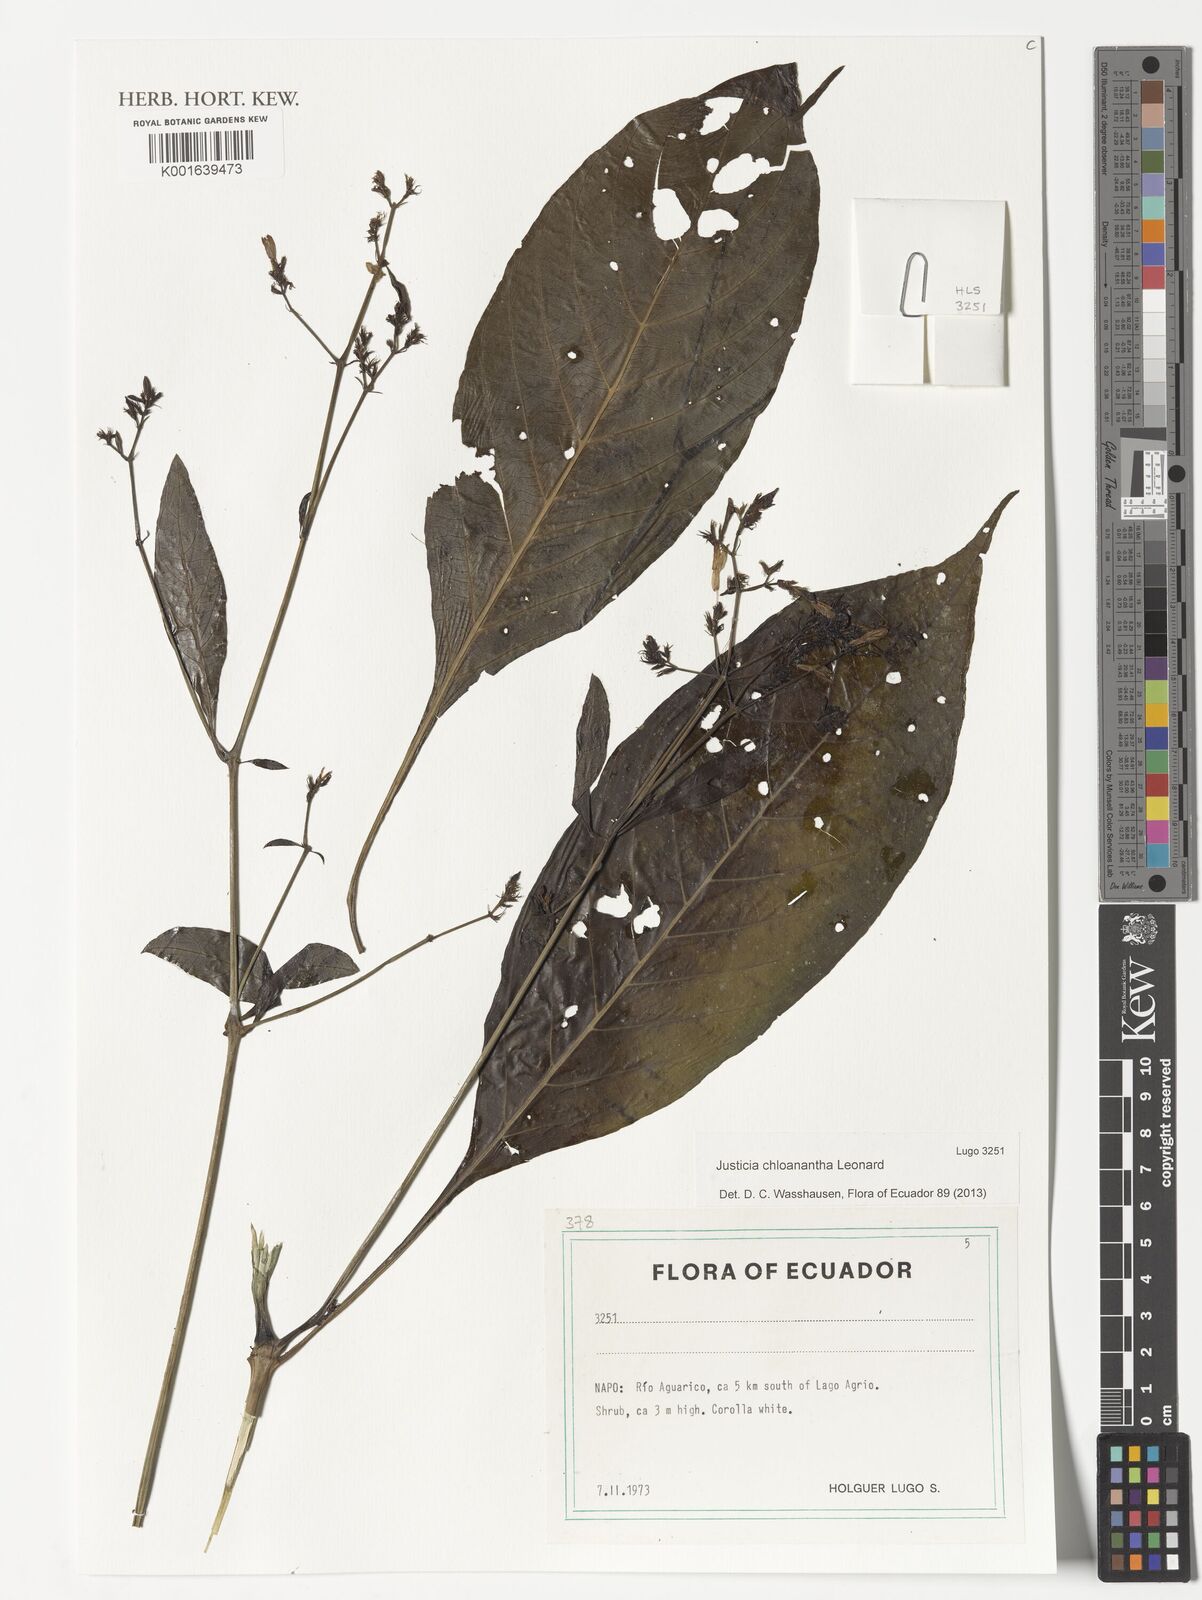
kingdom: Plantae
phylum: Tracheophyta
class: Magnoliopsida
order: Lamiales
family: Acanthaceae
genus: Justicia
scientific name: Justicia chloanantha
